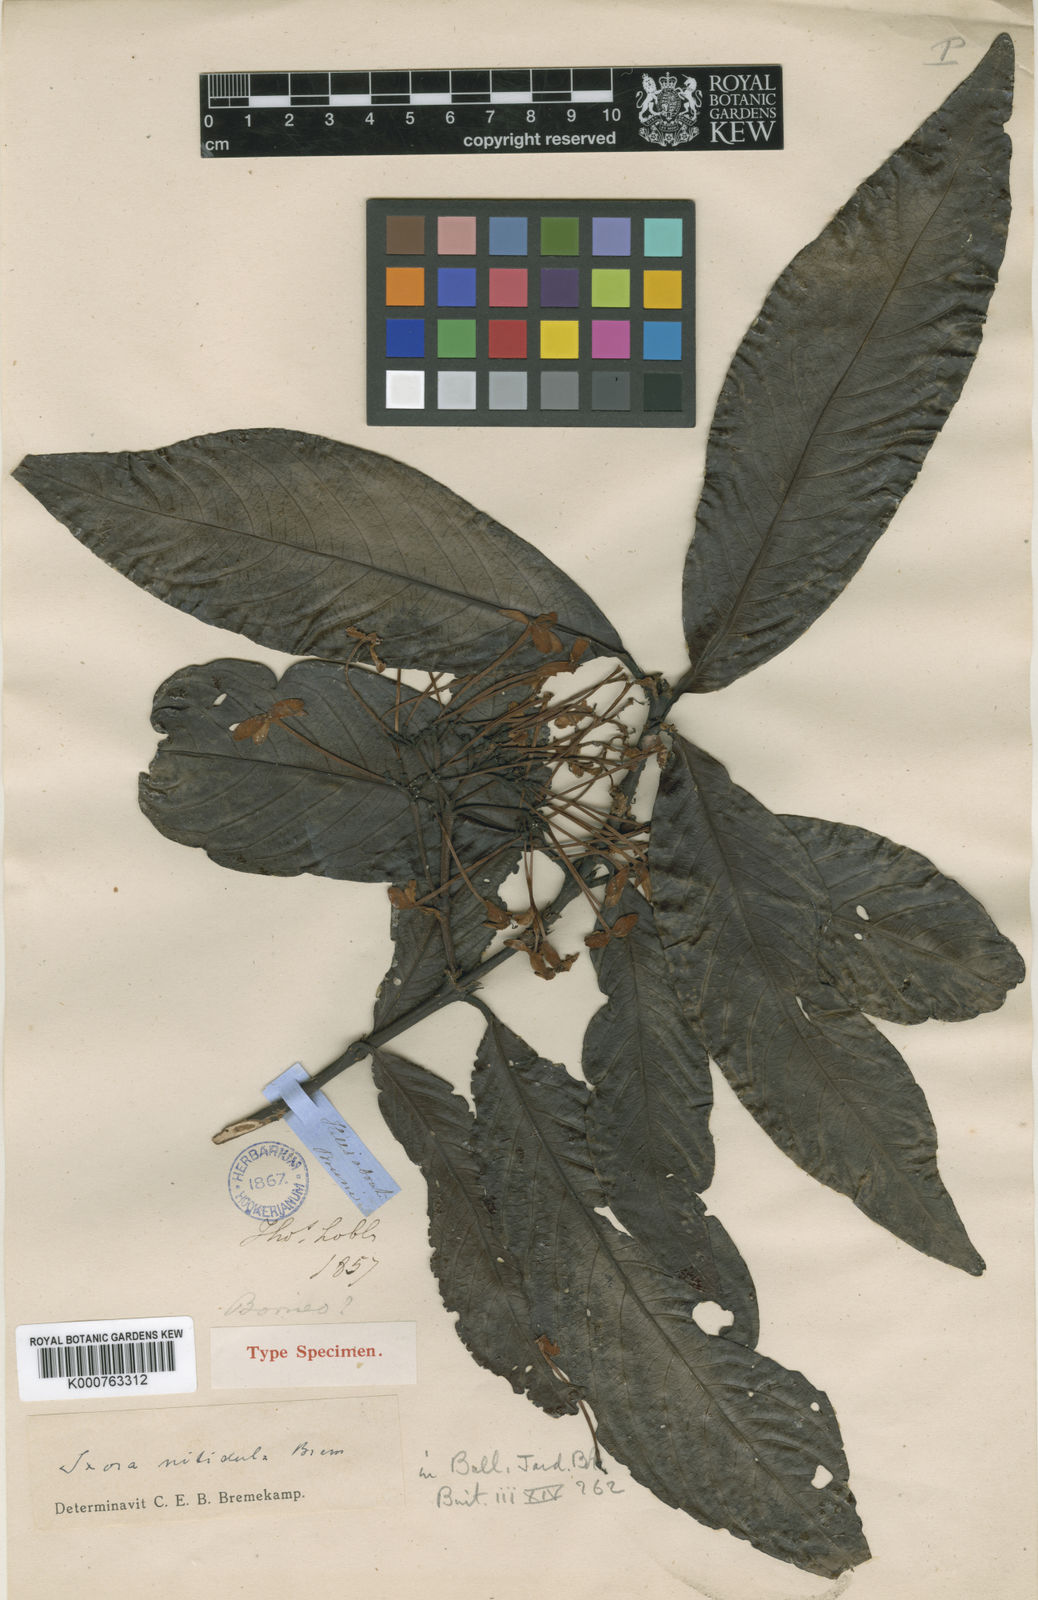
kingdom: Plantae
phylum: Tracheophyta
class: Magnoliopsida
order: Gentianales
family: Rubiaceae
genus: Ixora
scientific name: Ixora nitidula
